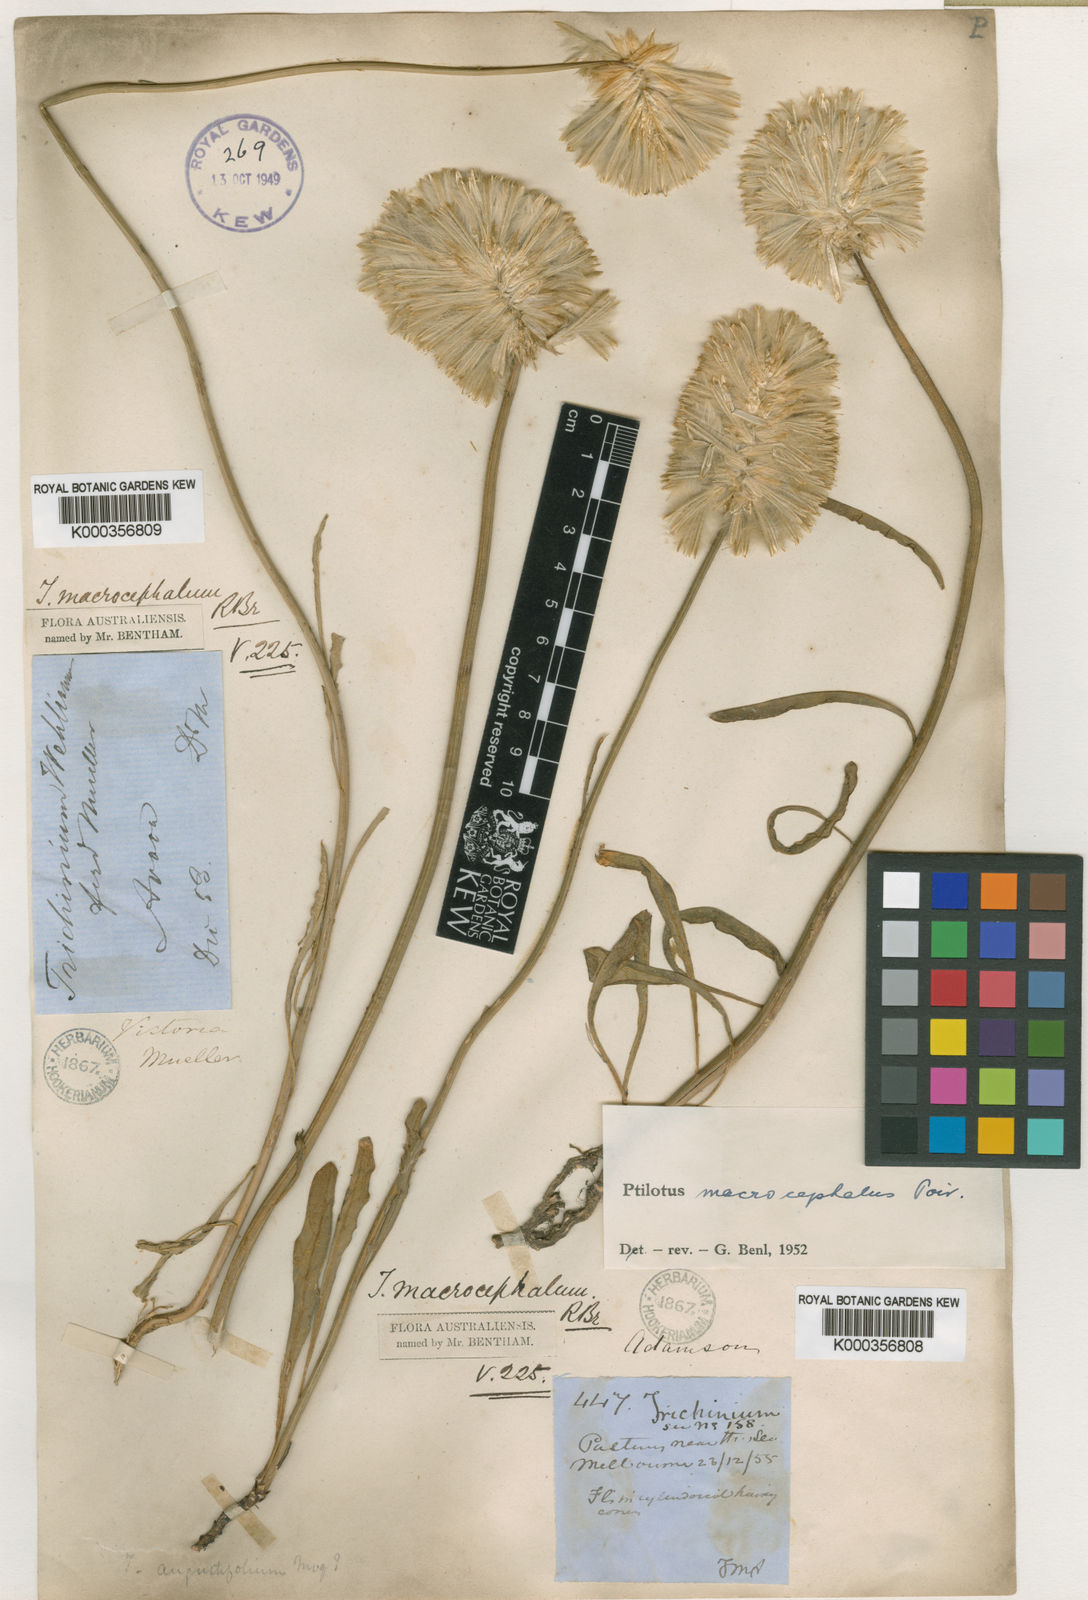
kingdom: Plantae
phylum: Tracheophyta
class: Magnoliopsida
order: Caryophyllales
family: Amaranthaceae
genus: Ptilotus
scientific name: Ptilotus macrocephalus
